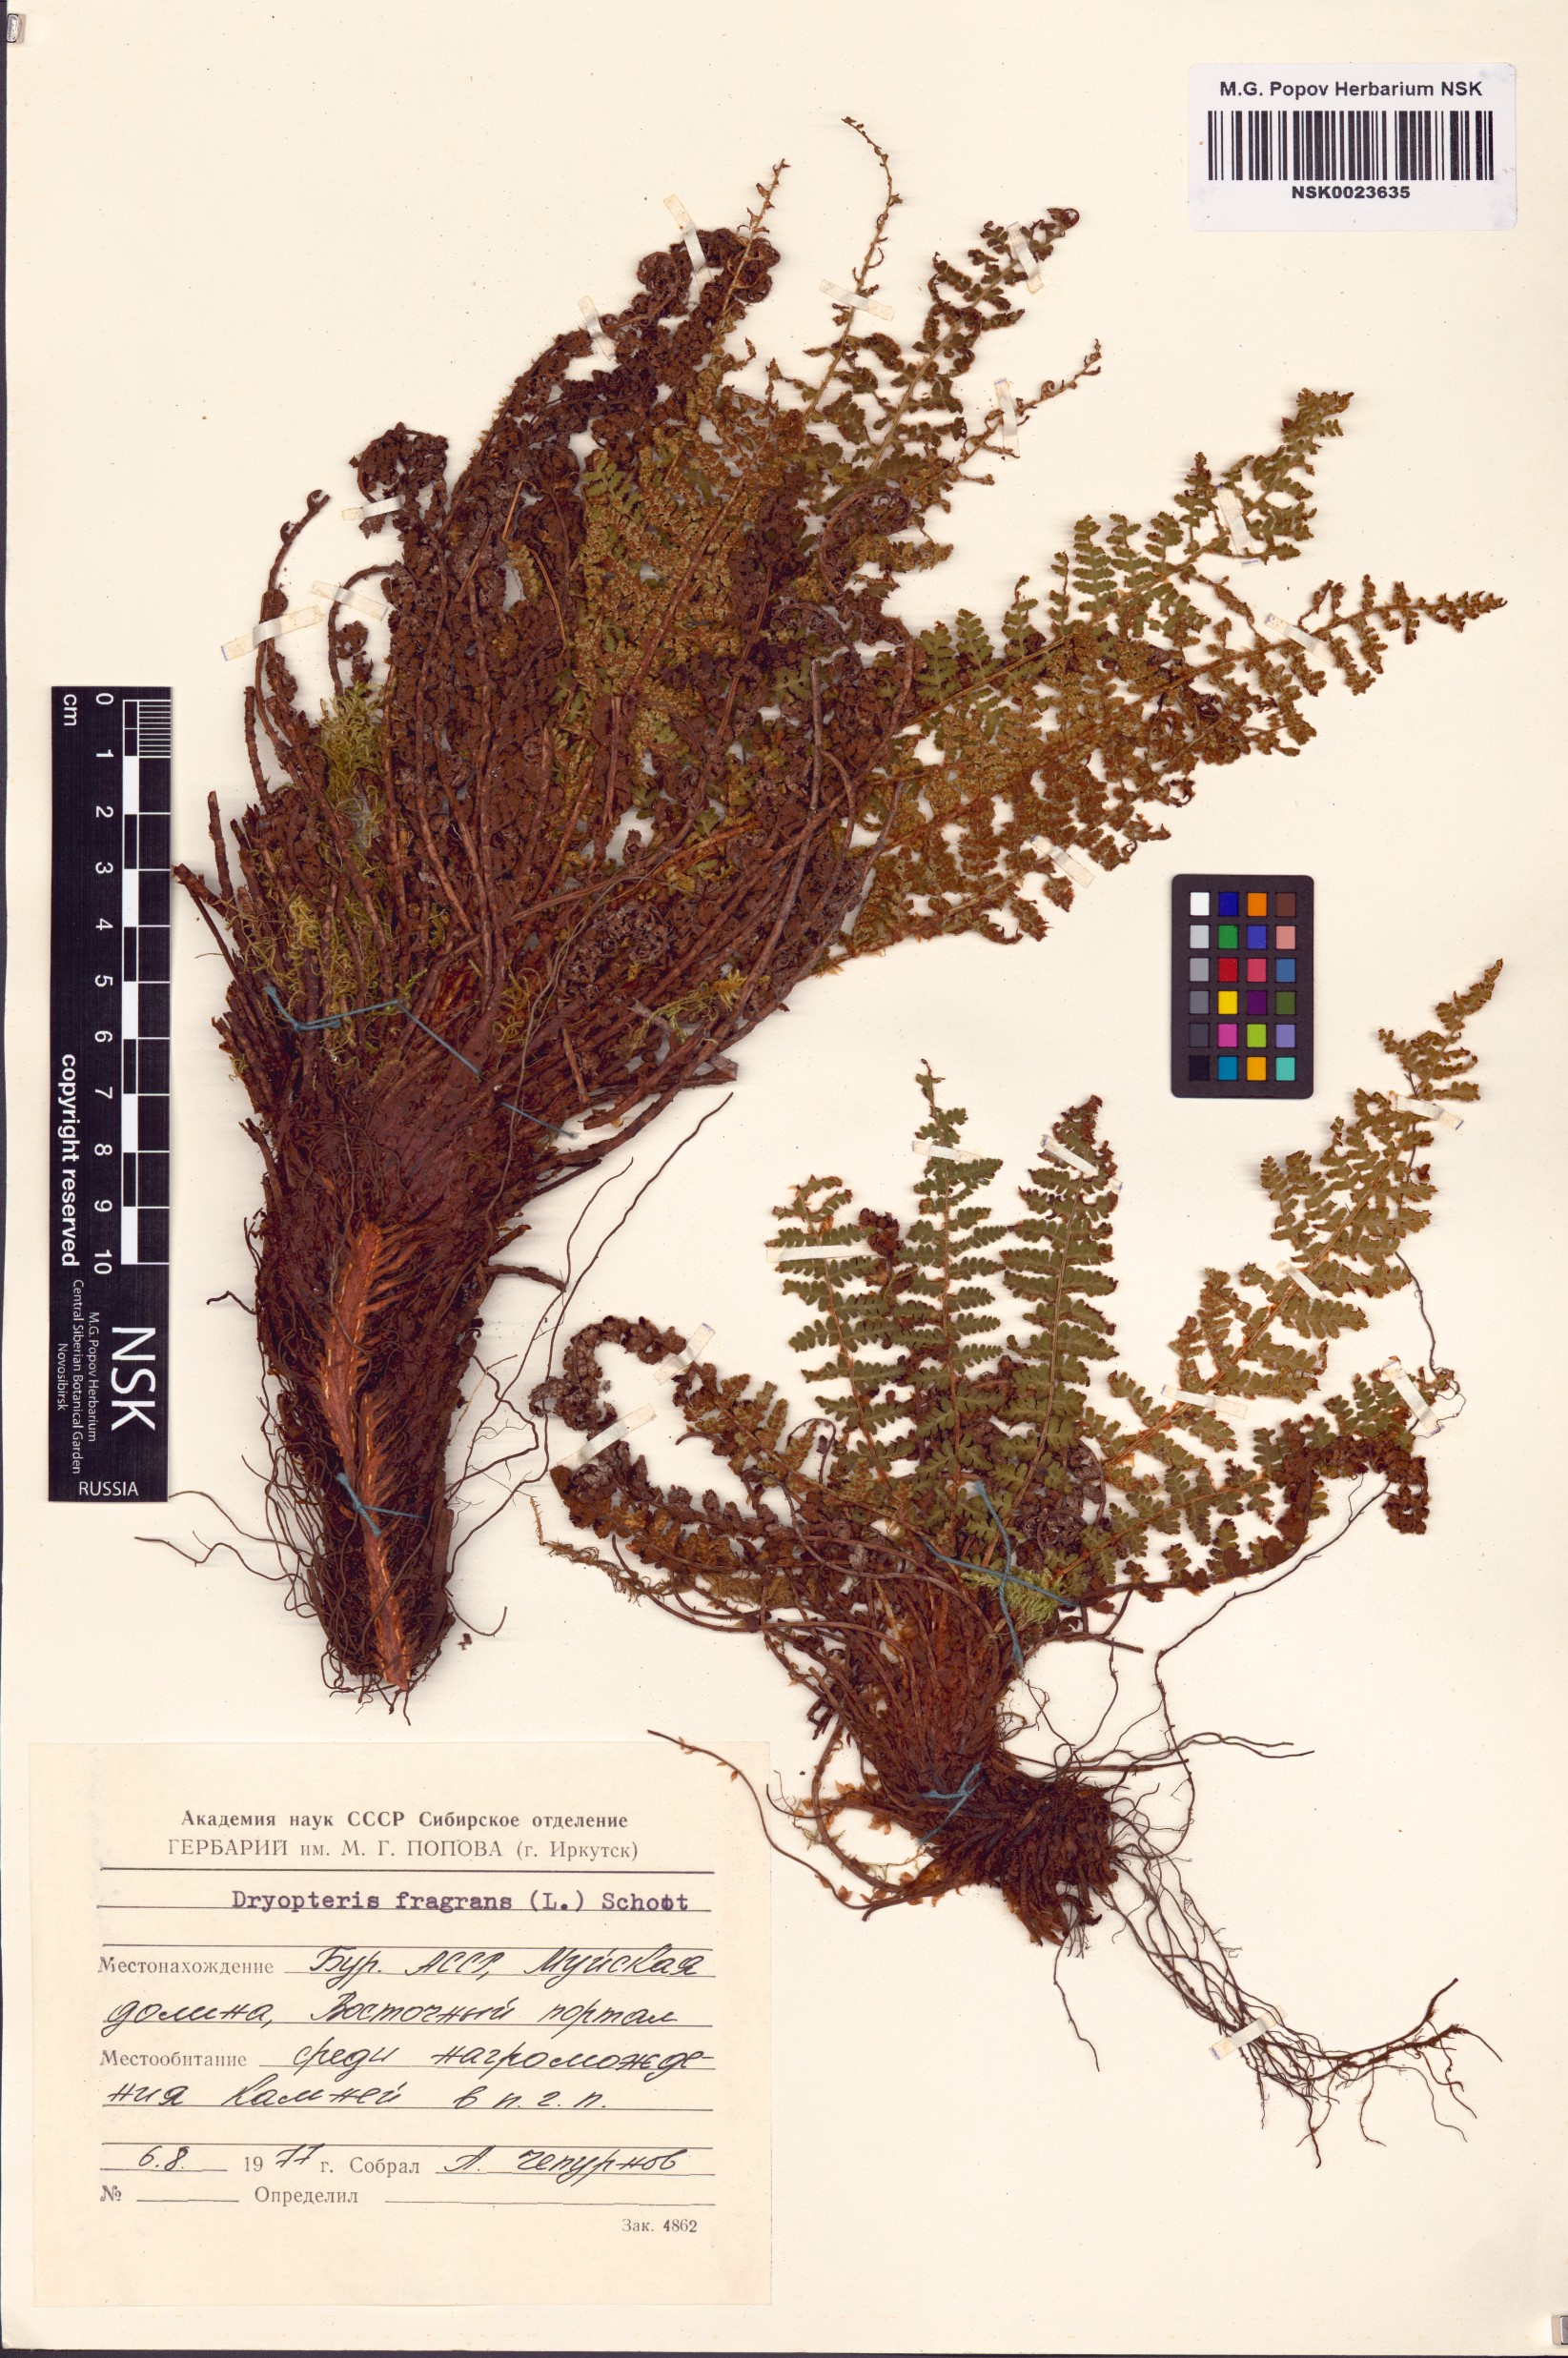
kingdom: Plantae
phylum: Tracheophyta
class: Polypodiopsida
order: Polypodiales
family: Dryopteridaceae
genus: Dryopteris
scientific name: Dryopteris fragrans
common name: Fragrant wood fern
